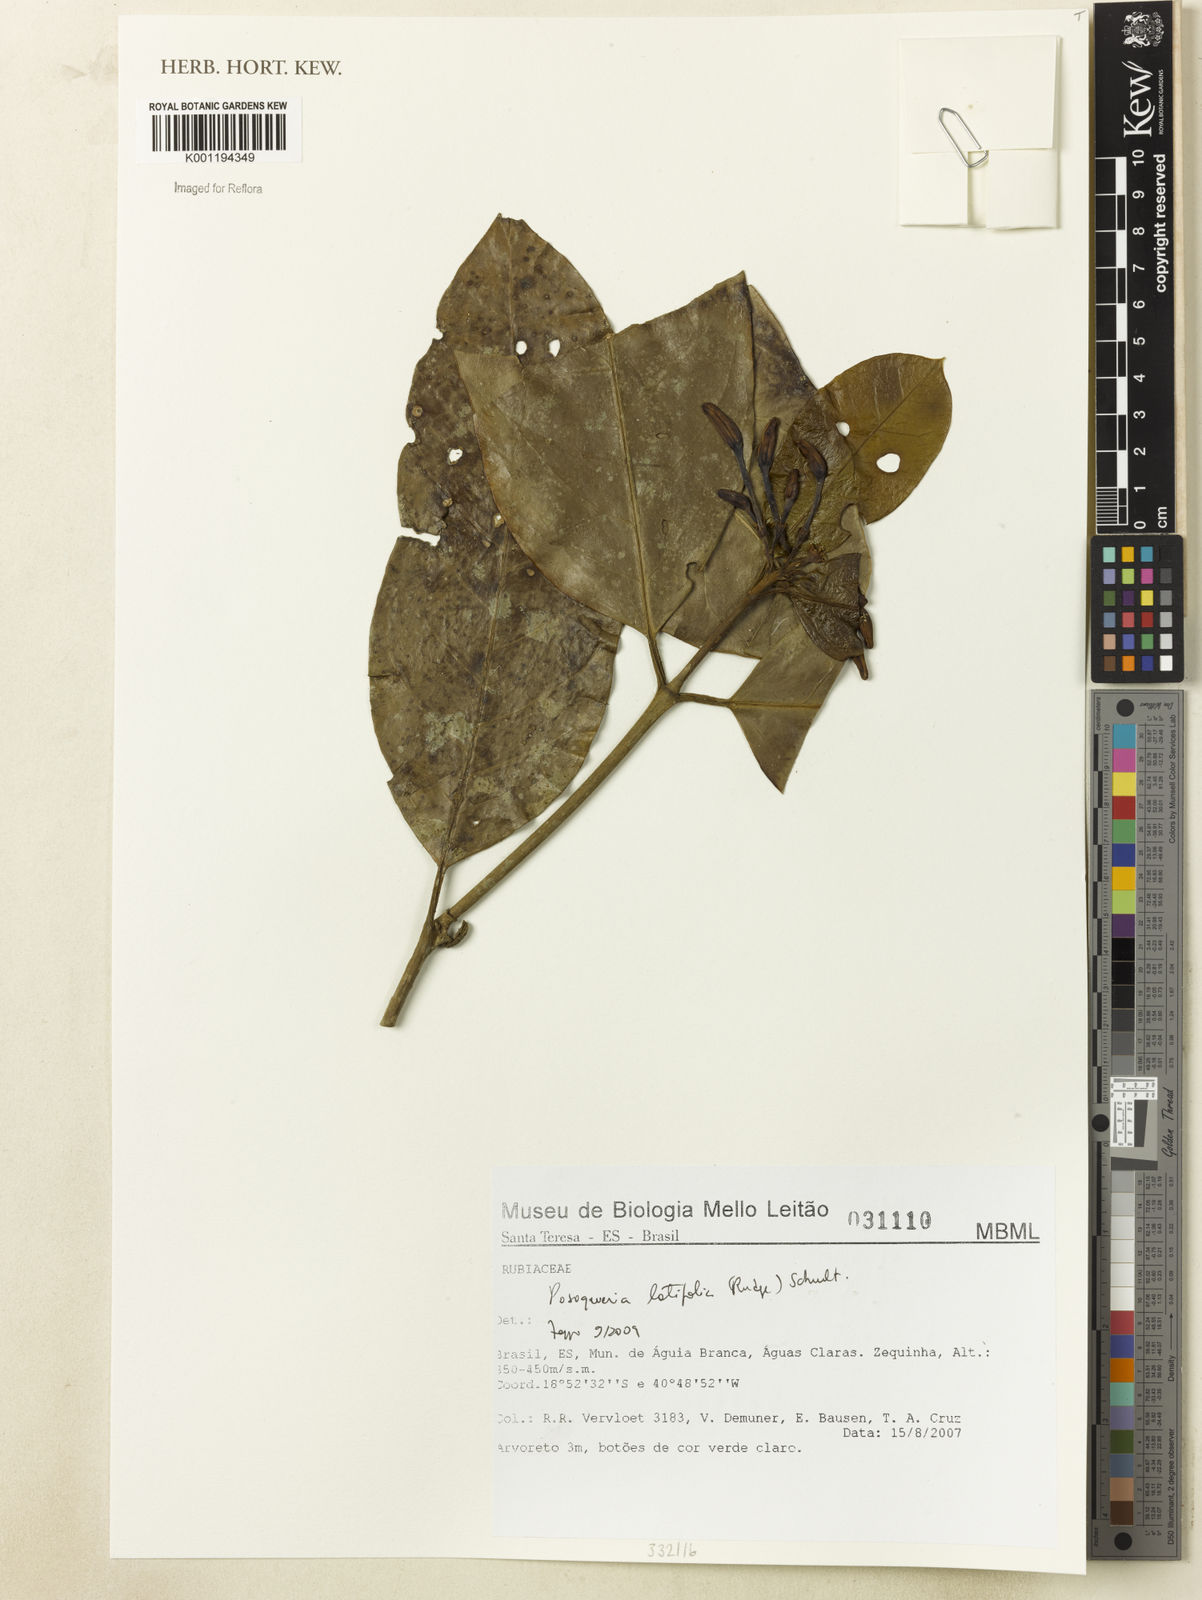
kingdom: Plantae
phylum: Tracheophyta
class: Magnoliopsida
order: Gentianales
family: Rubiaceae
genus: Posoqueria
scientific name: Posoqueria latifolia
